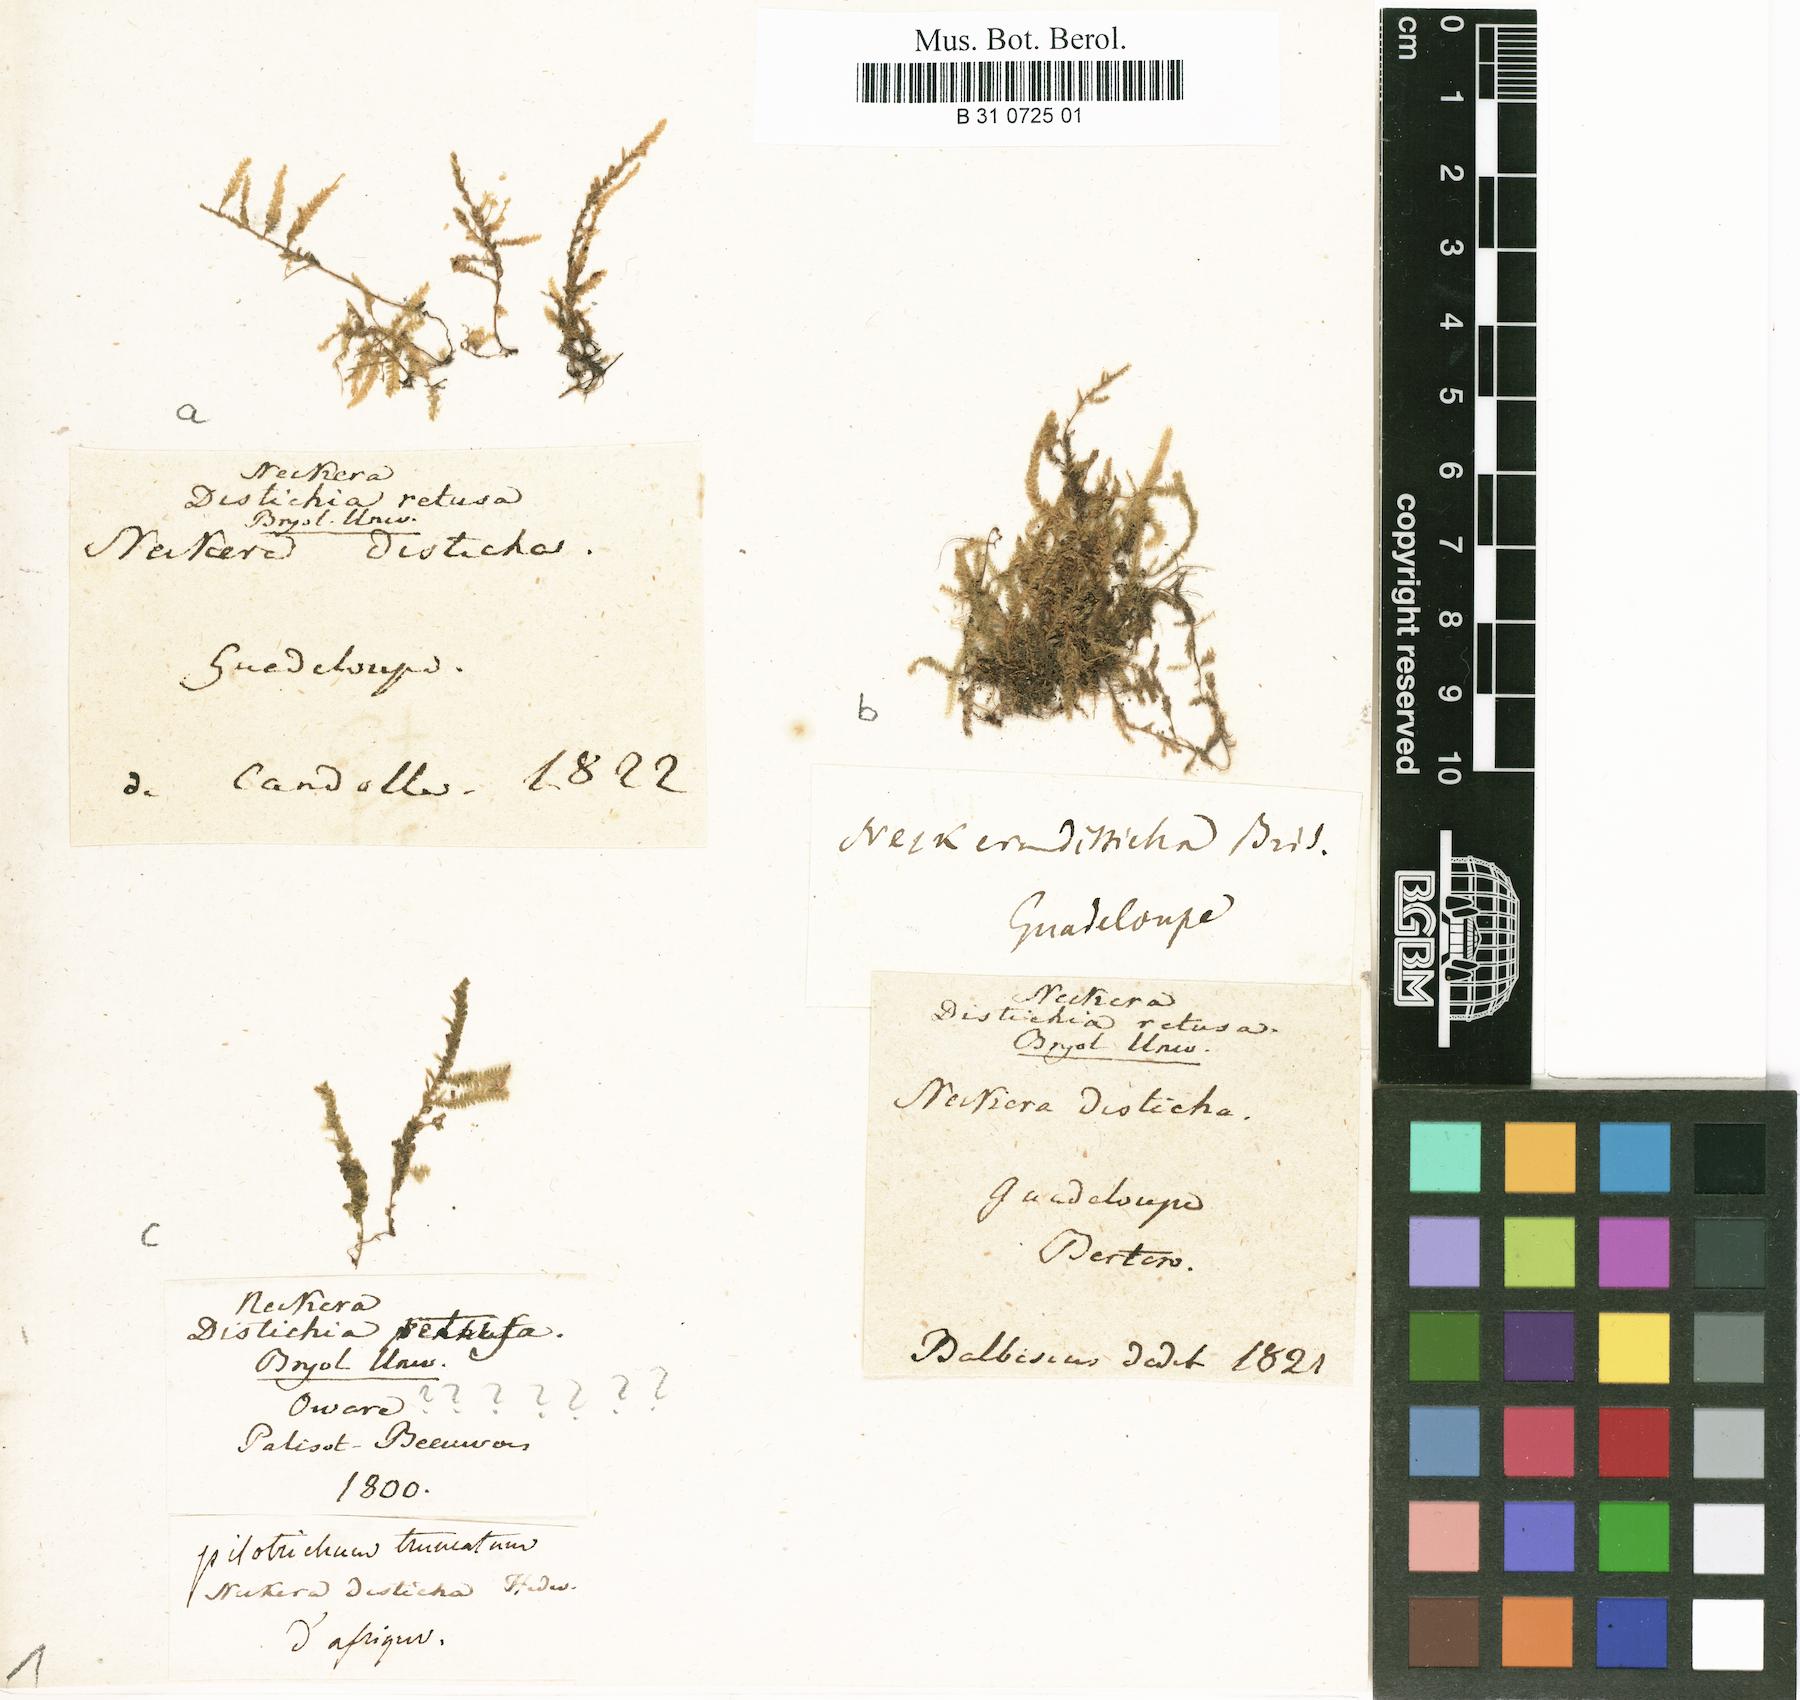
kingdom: Plantae
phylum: Bryophyta
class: Bryopsida
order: Hypnales
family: Neckeraceae
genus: Neckeropsis
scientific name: Neckeropsis disticha
